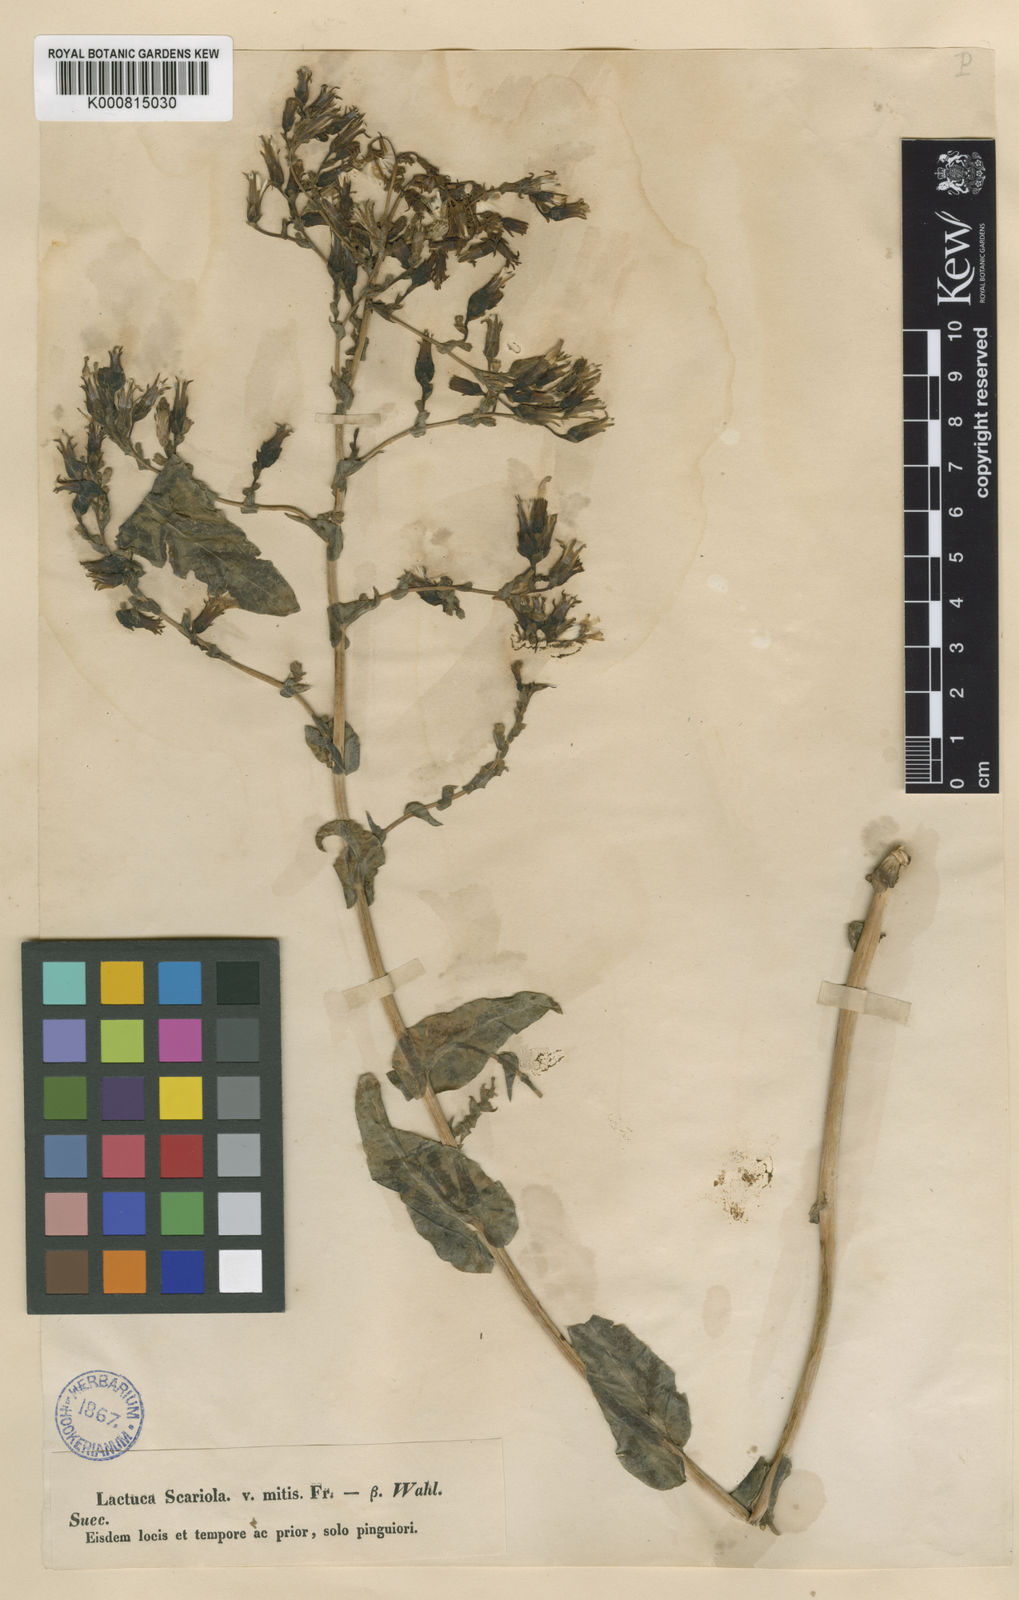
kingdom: Plantae
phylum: Tracheophyta
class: Magnoliopsida
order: Asterales
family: Asteraceae
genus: Lactuca
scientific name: Lactuca serriola
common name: Prickly lettuce
